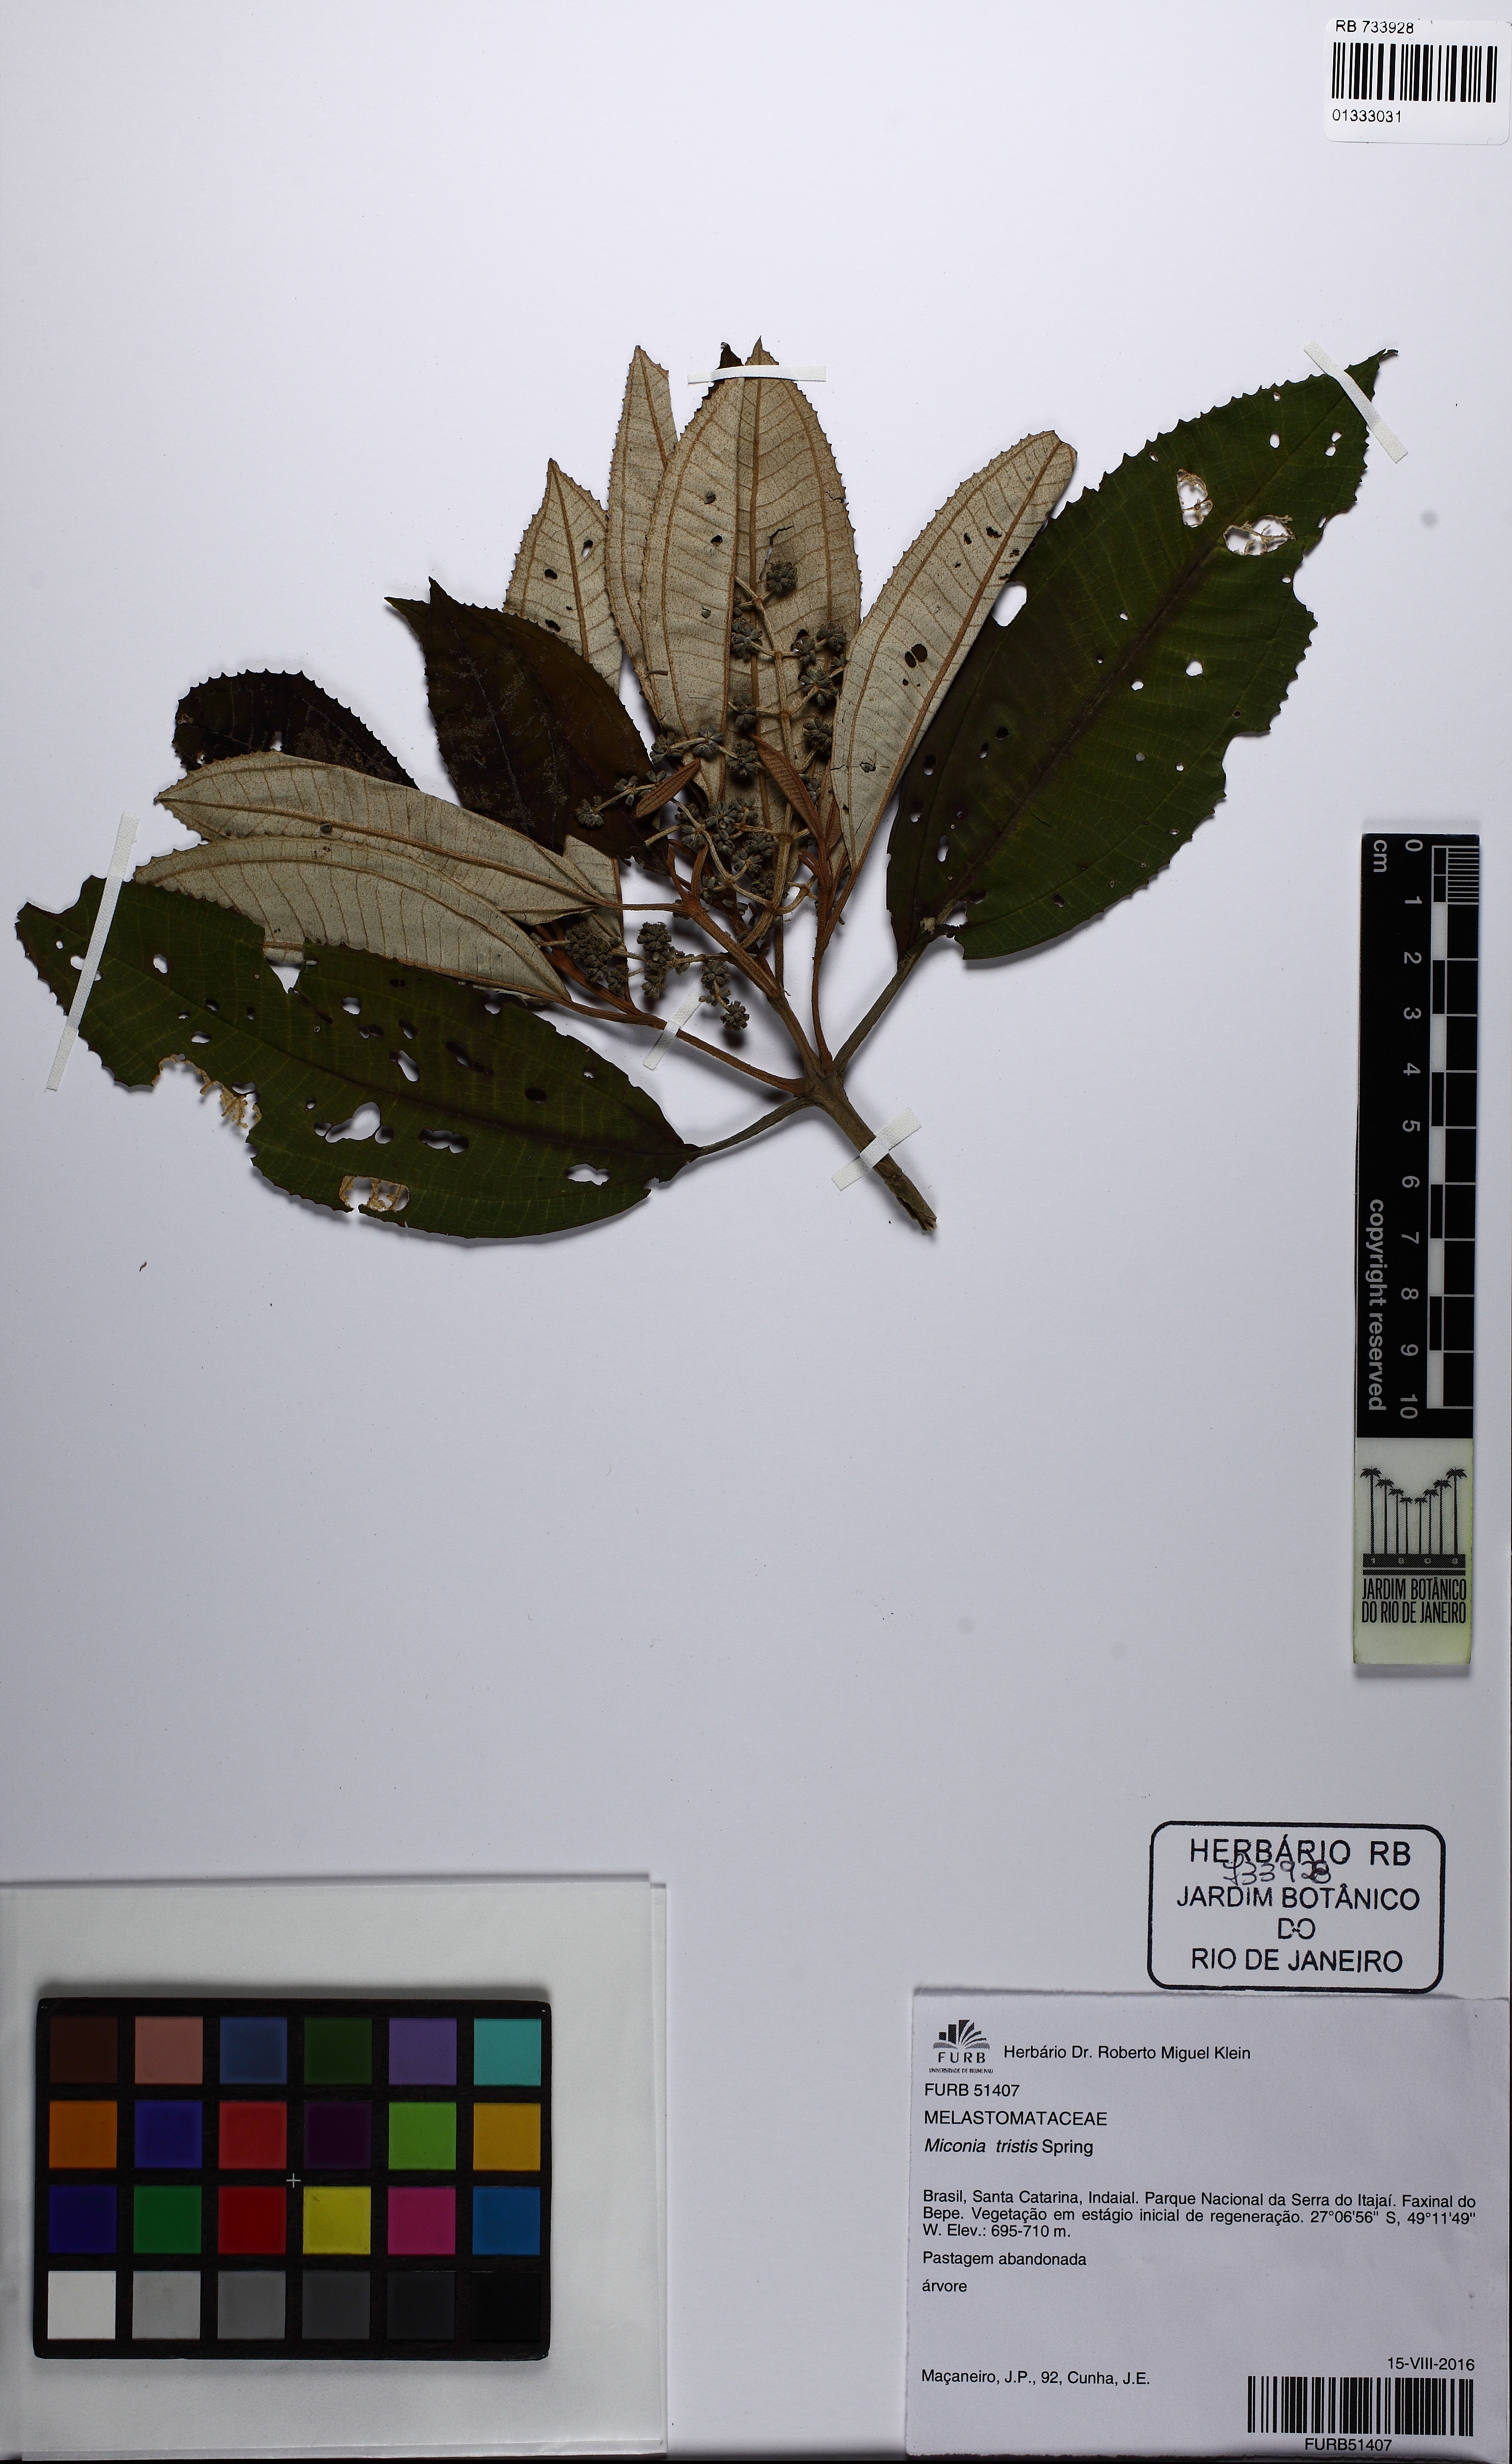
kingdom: Plantae
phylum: Tracheophyta
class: Magnoliopsida
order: Myrtales
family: Melastomataceae
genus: Miconia
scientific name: Miconia tristis
